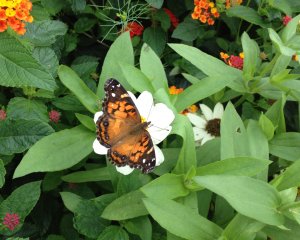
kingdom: Animalia
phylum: Arthropoda
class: Insecta
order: Lepidoptera
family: Nymphalidae
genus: Vanessa
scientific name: Vanessa virginiensis
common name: American Lady
